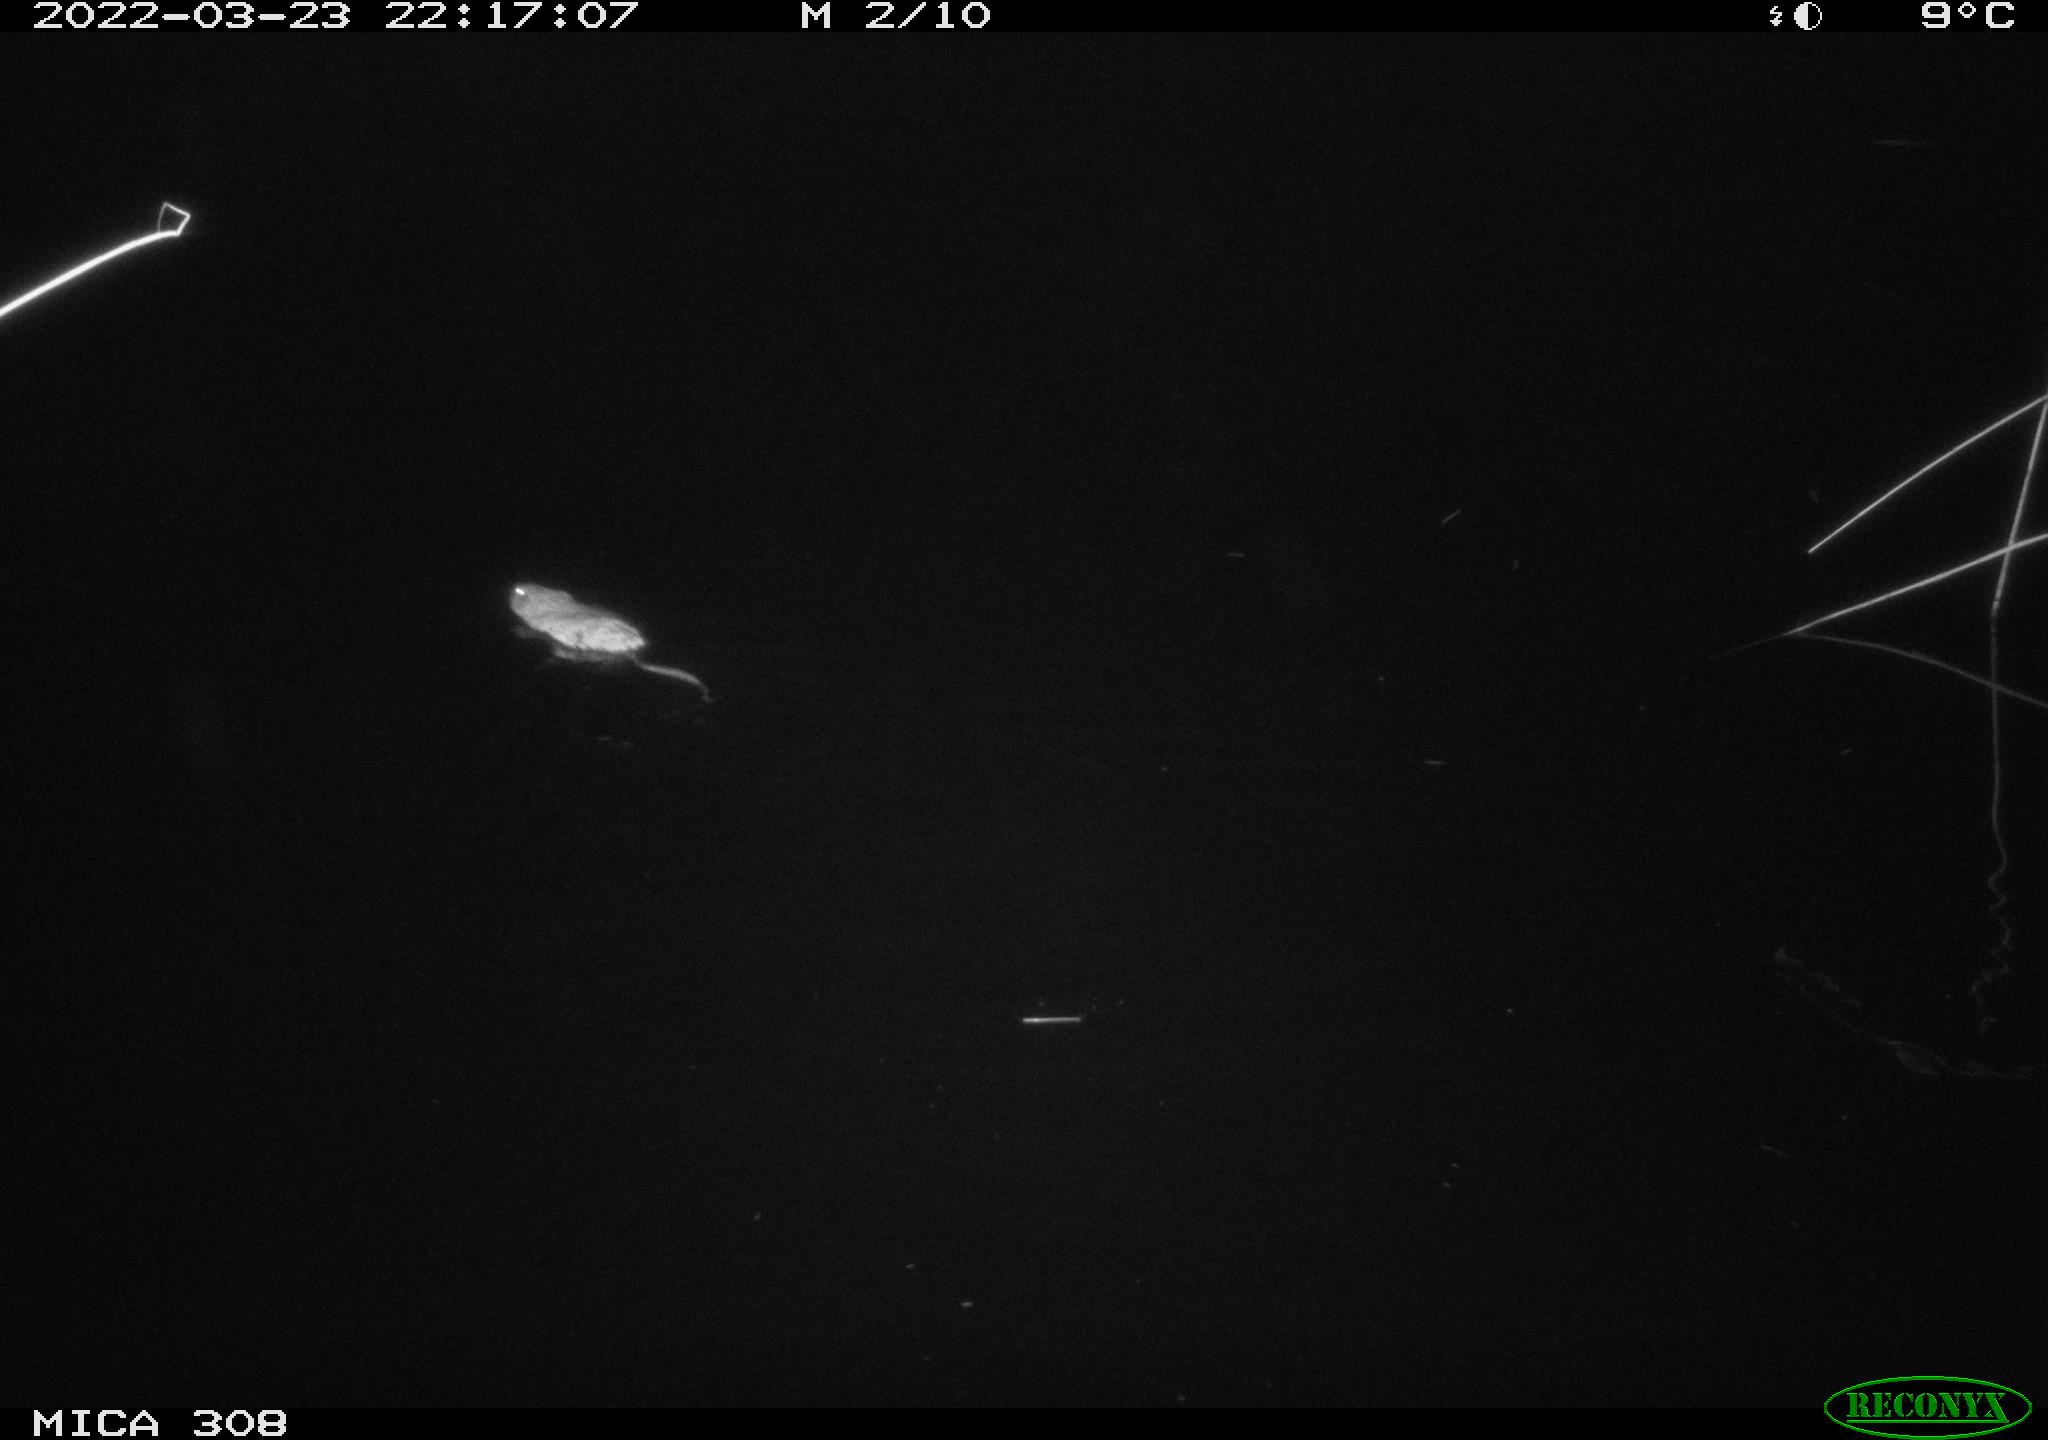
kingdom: Animalia
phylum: Chordata
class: Mammalia
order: Rodentia
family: Cricetidae
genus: Ondatra
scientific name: Ondatra zibethicus
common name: Muskrat
